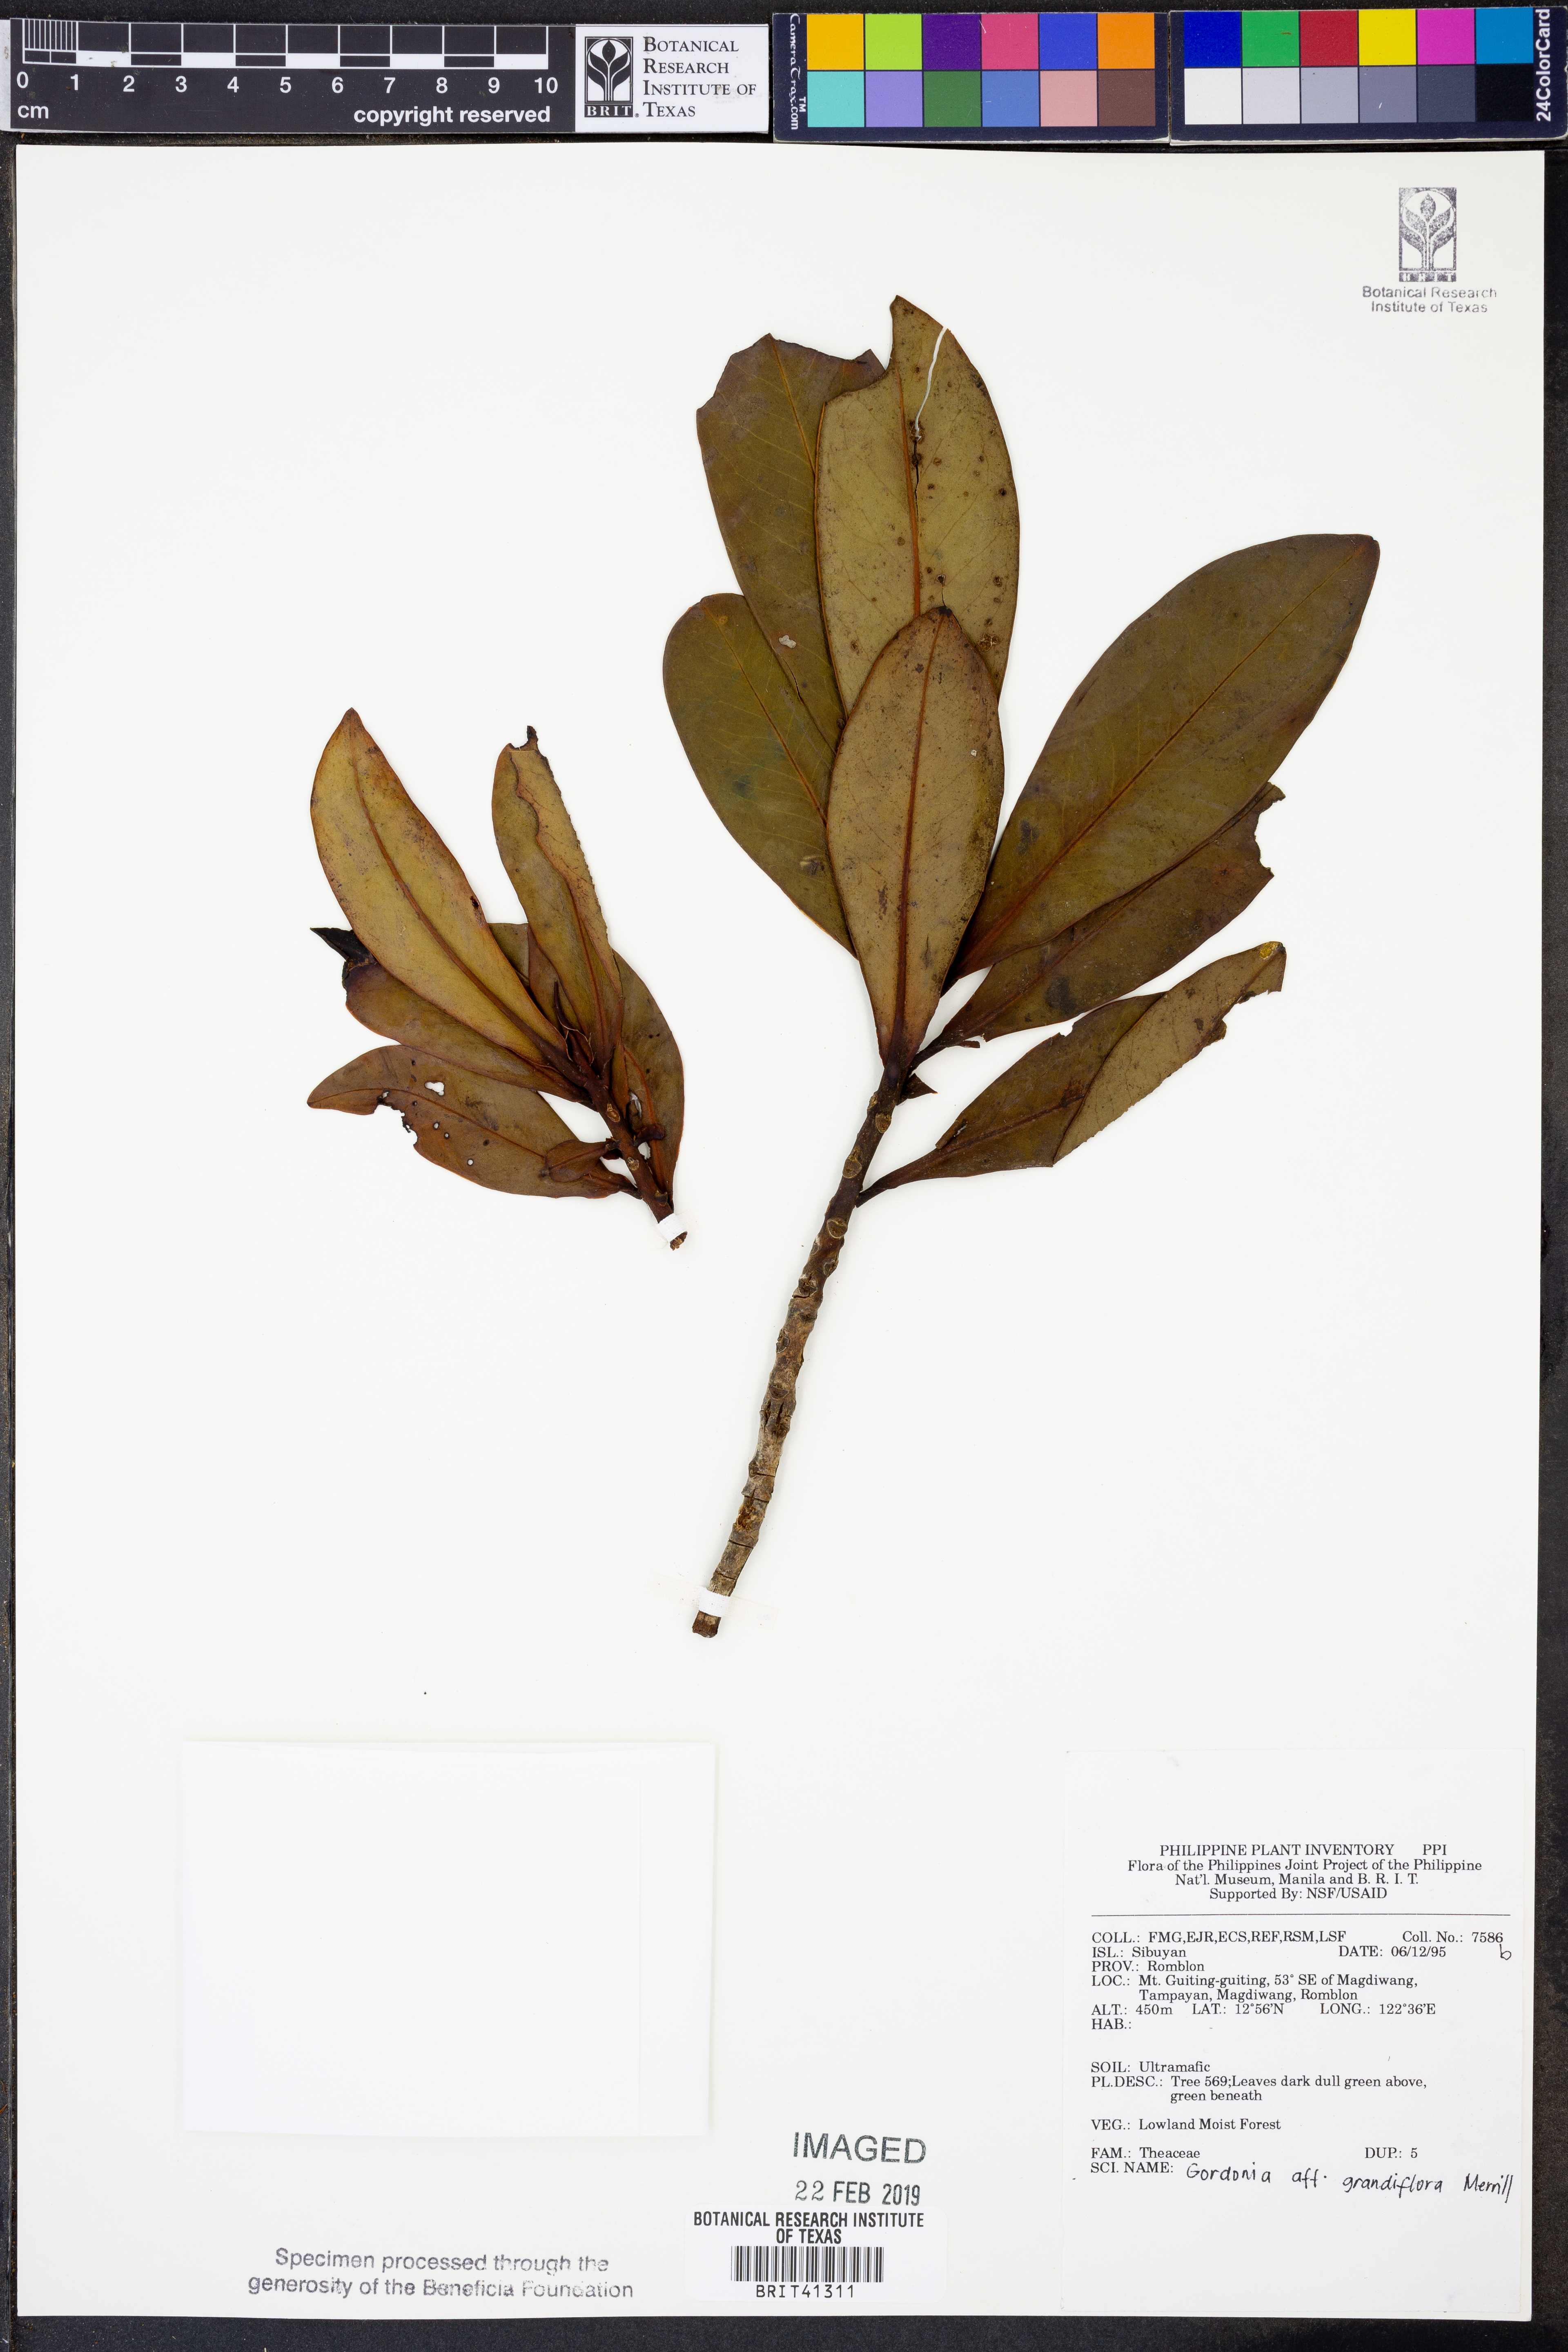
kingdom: Plantae
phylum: Tracheophyta
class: Magnoliopsida
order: Ericales
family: Theaceae
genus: Polyspora
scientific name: Polyspora grandiflora
